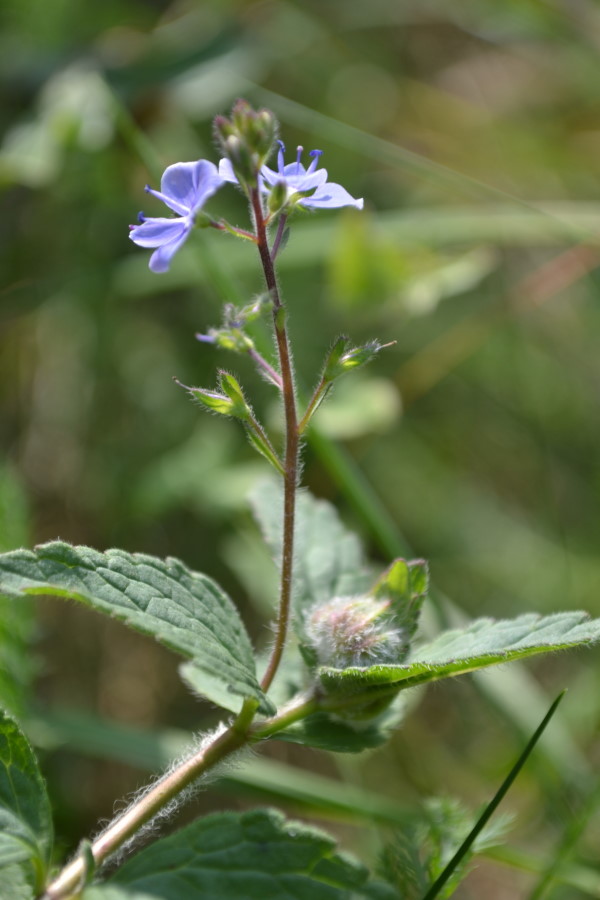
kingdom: Plantae
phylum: Tracheophyta
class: Magnoliopsida
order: Lamiales
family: Plantaginaceae
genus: Veronica
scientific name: Veronica chamaedrys
